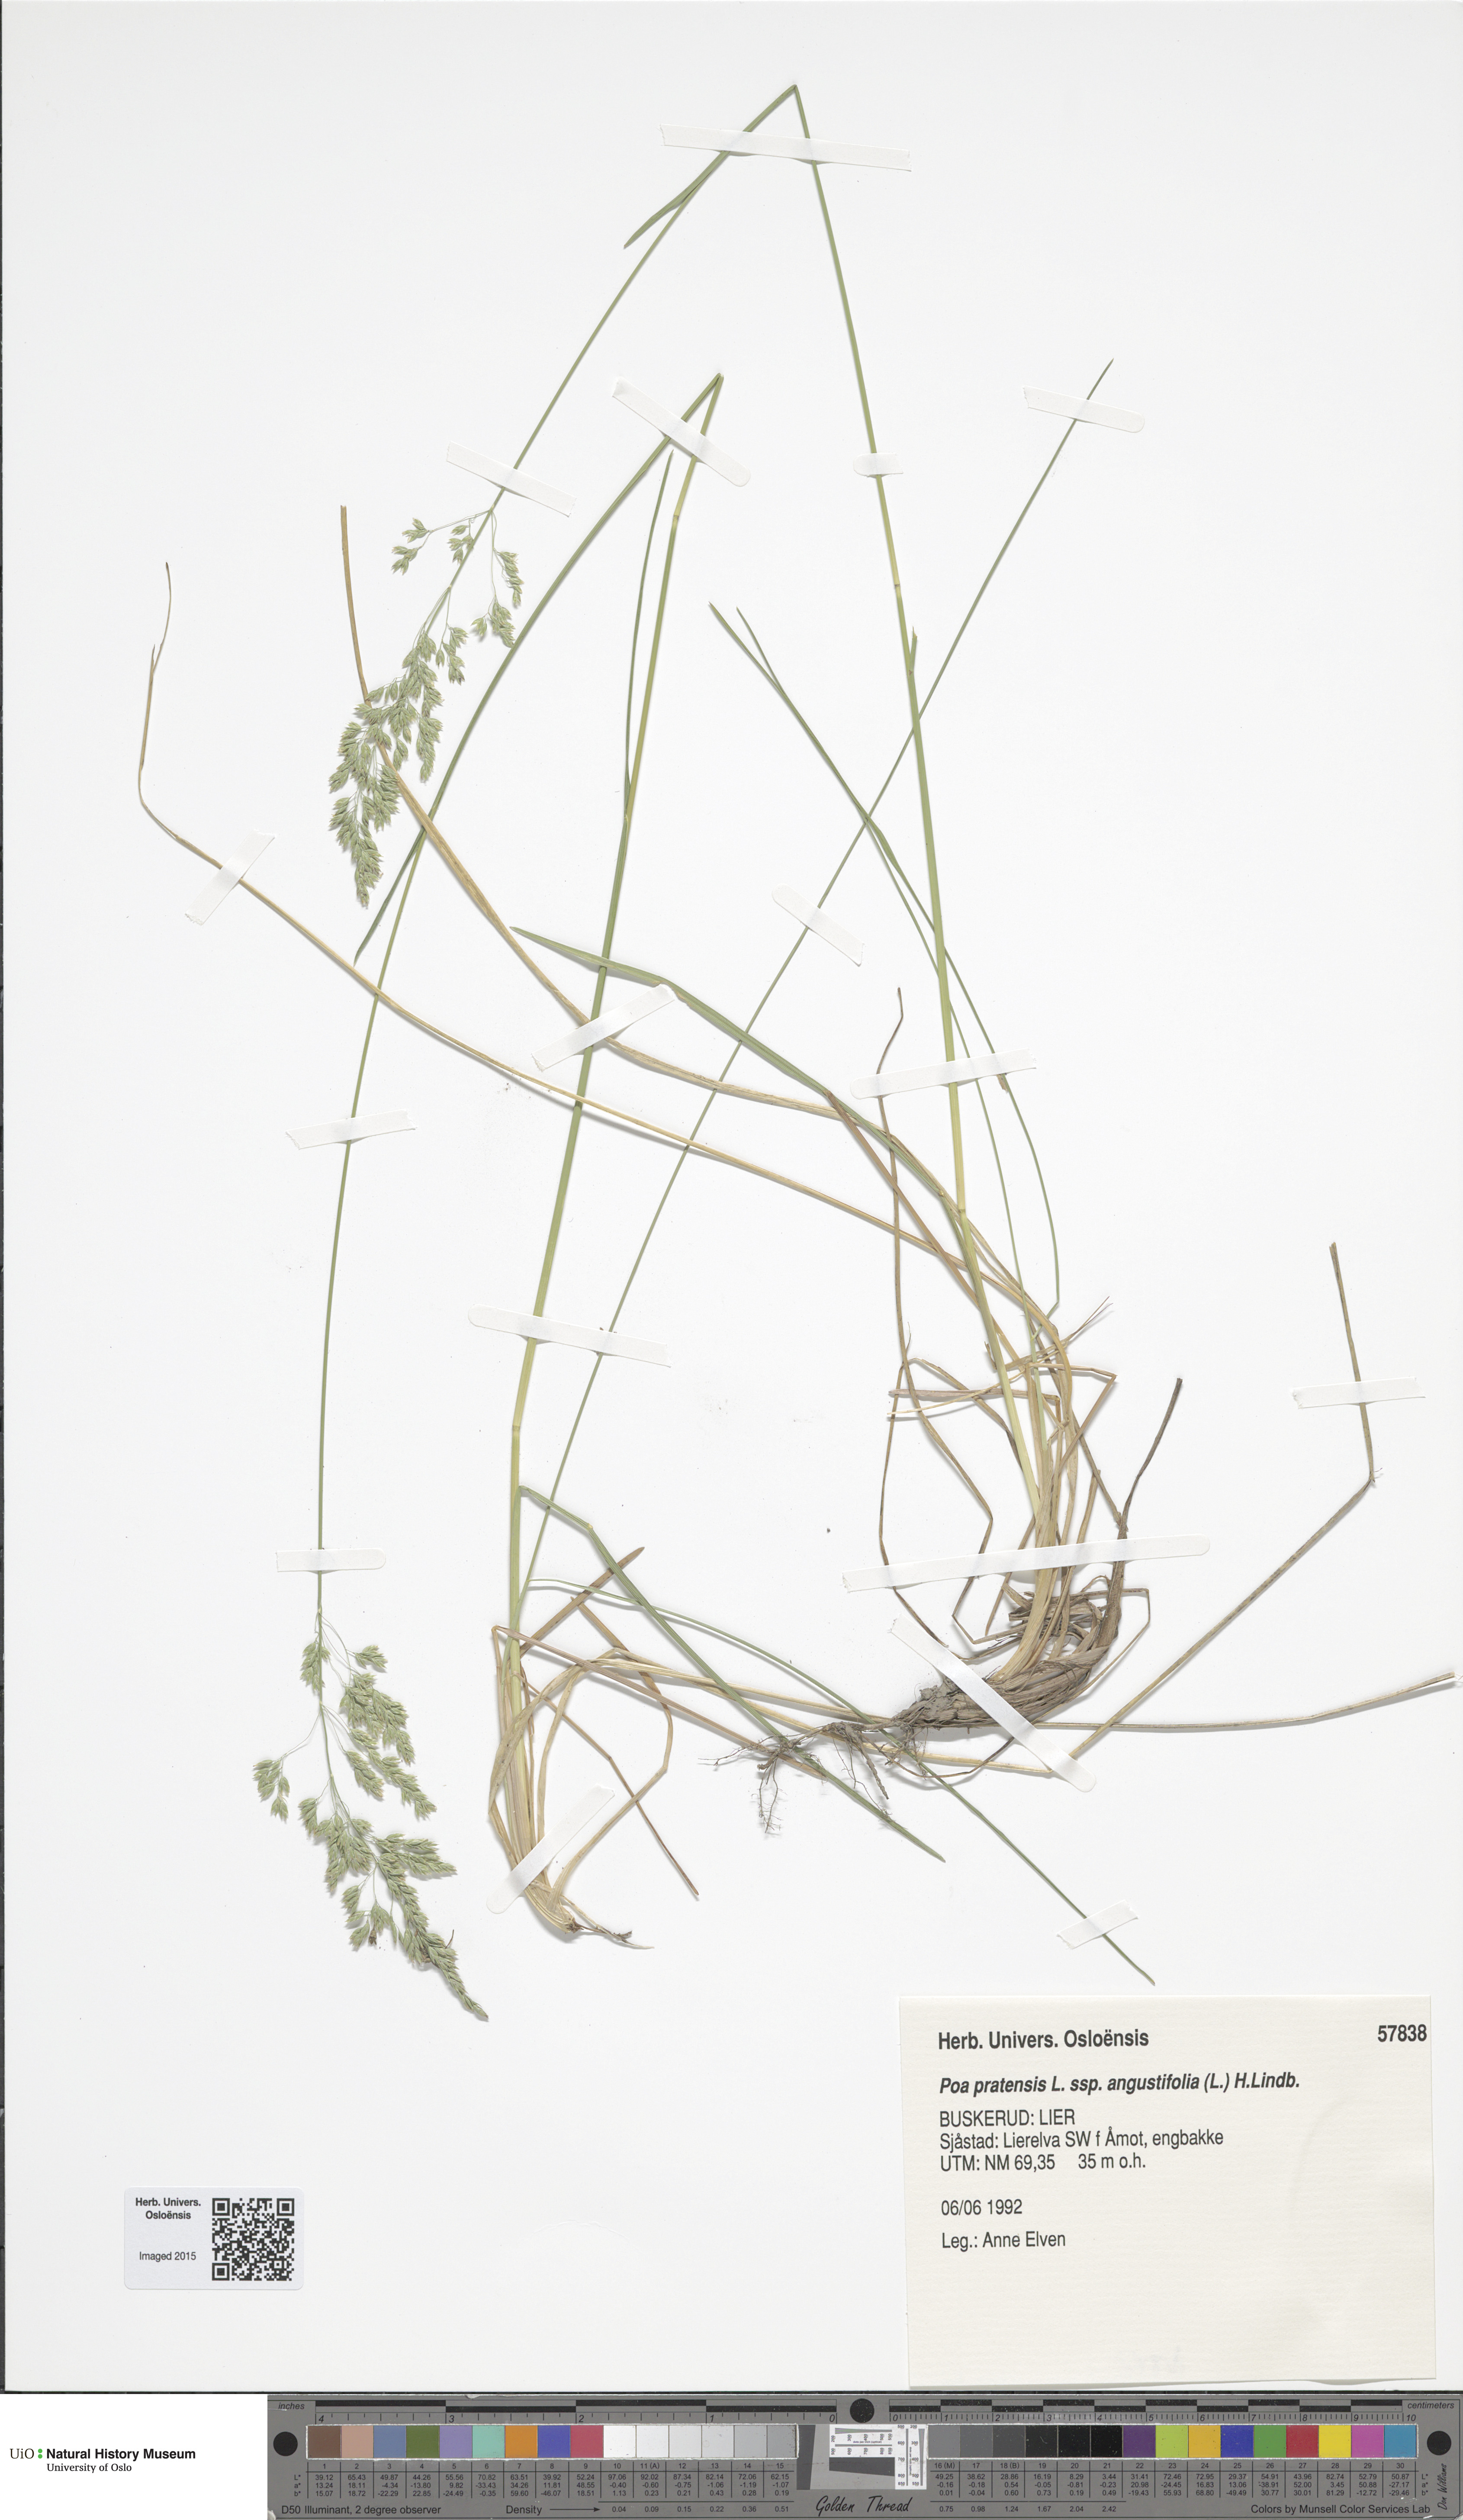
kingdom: Plantae
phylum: Tracheophyta
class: Liliopsida
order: Poales
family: Poaceae
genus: Poa
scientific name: Poa angustifolia
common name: Narrow-leaved meadow-grass
